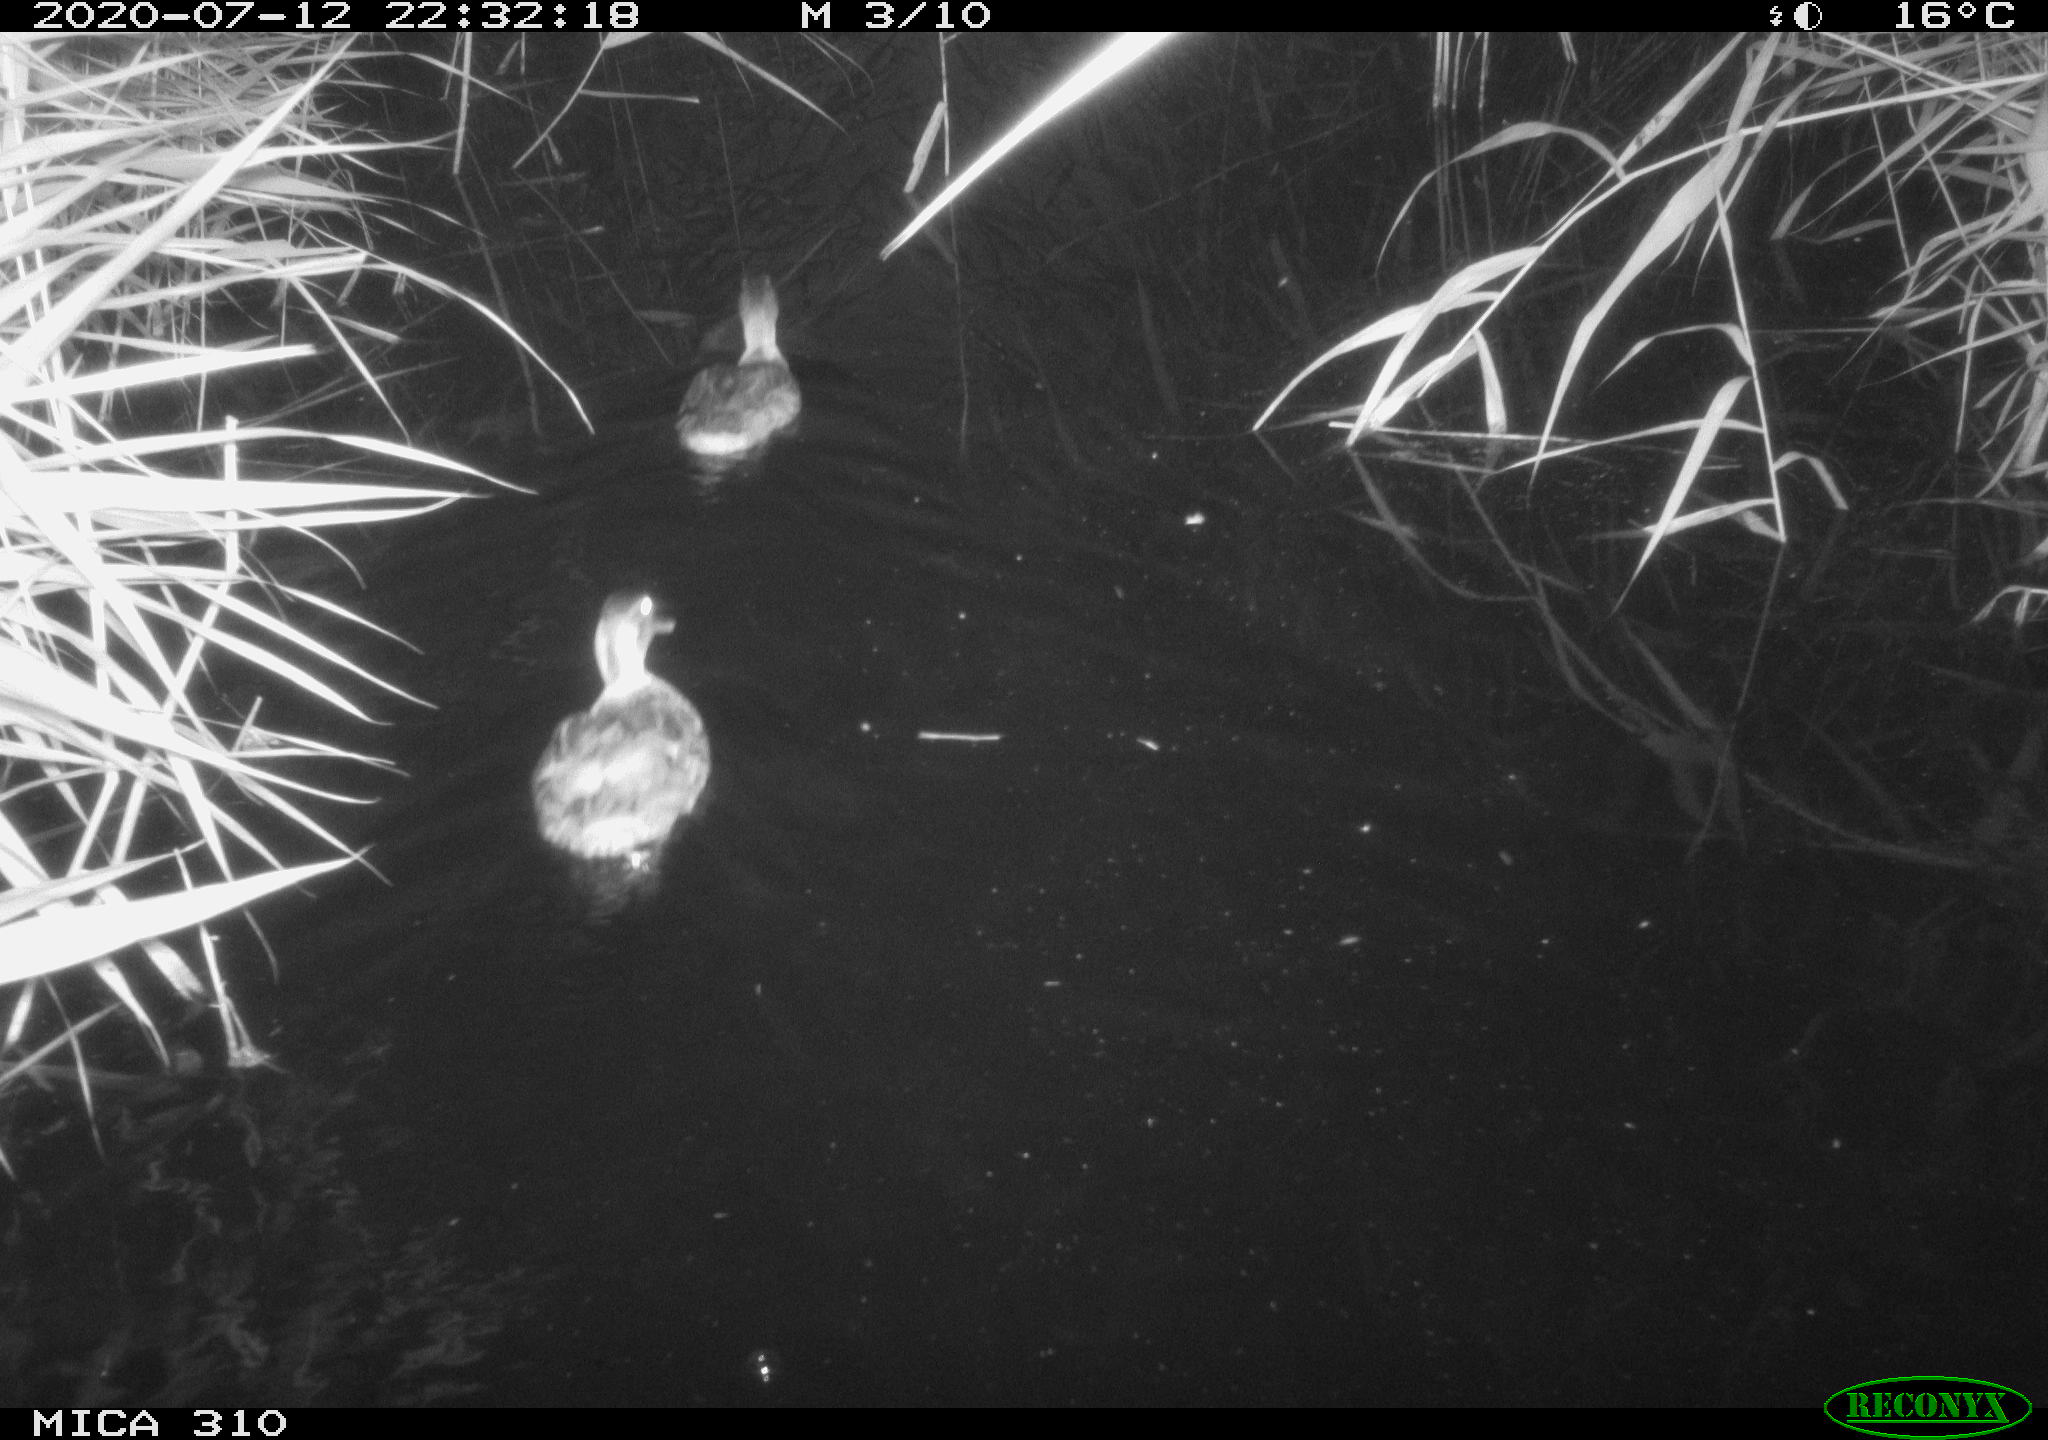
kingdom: Animalia
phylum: Chordata
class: Aves
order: Anseriformes
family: Anatidae
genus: Anas
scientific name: Anas platyrhynchos
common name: Mallard
